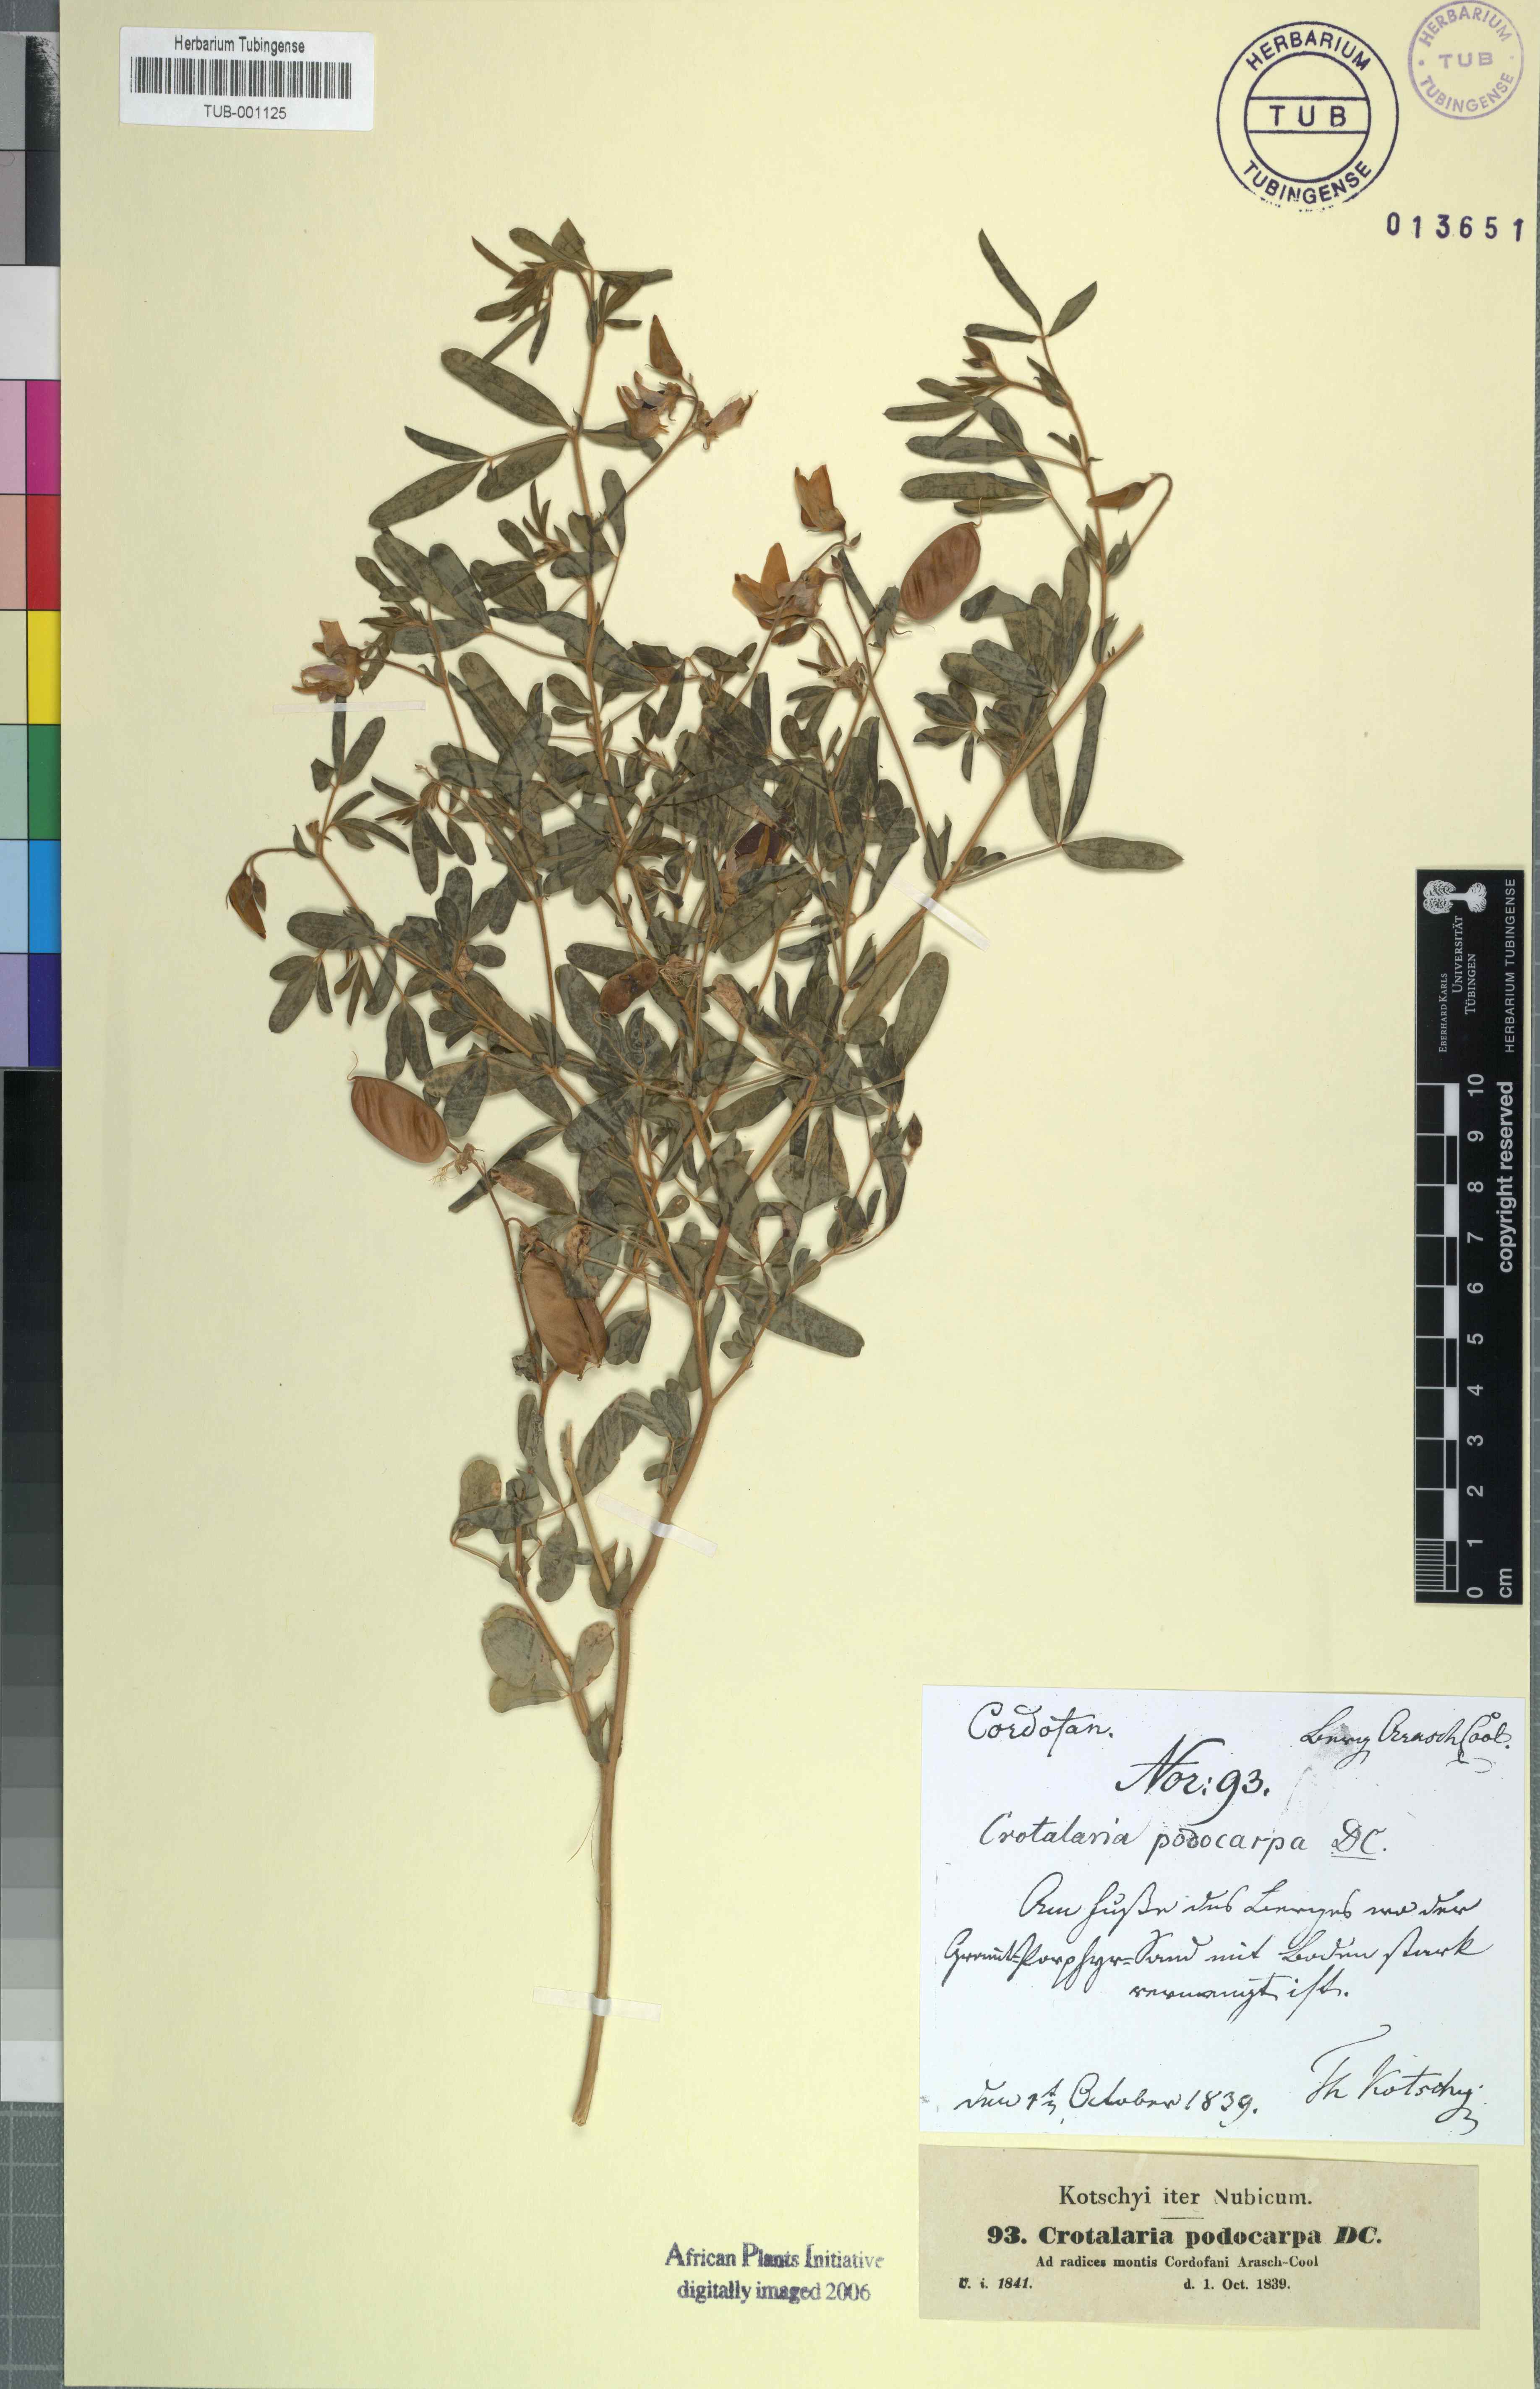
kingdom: Plantae
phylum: Tracheophyta
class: Magnoliopsida
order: Fabales
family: Fabaceae
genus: Crotalaria
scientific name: Crotalaria podocarpa
